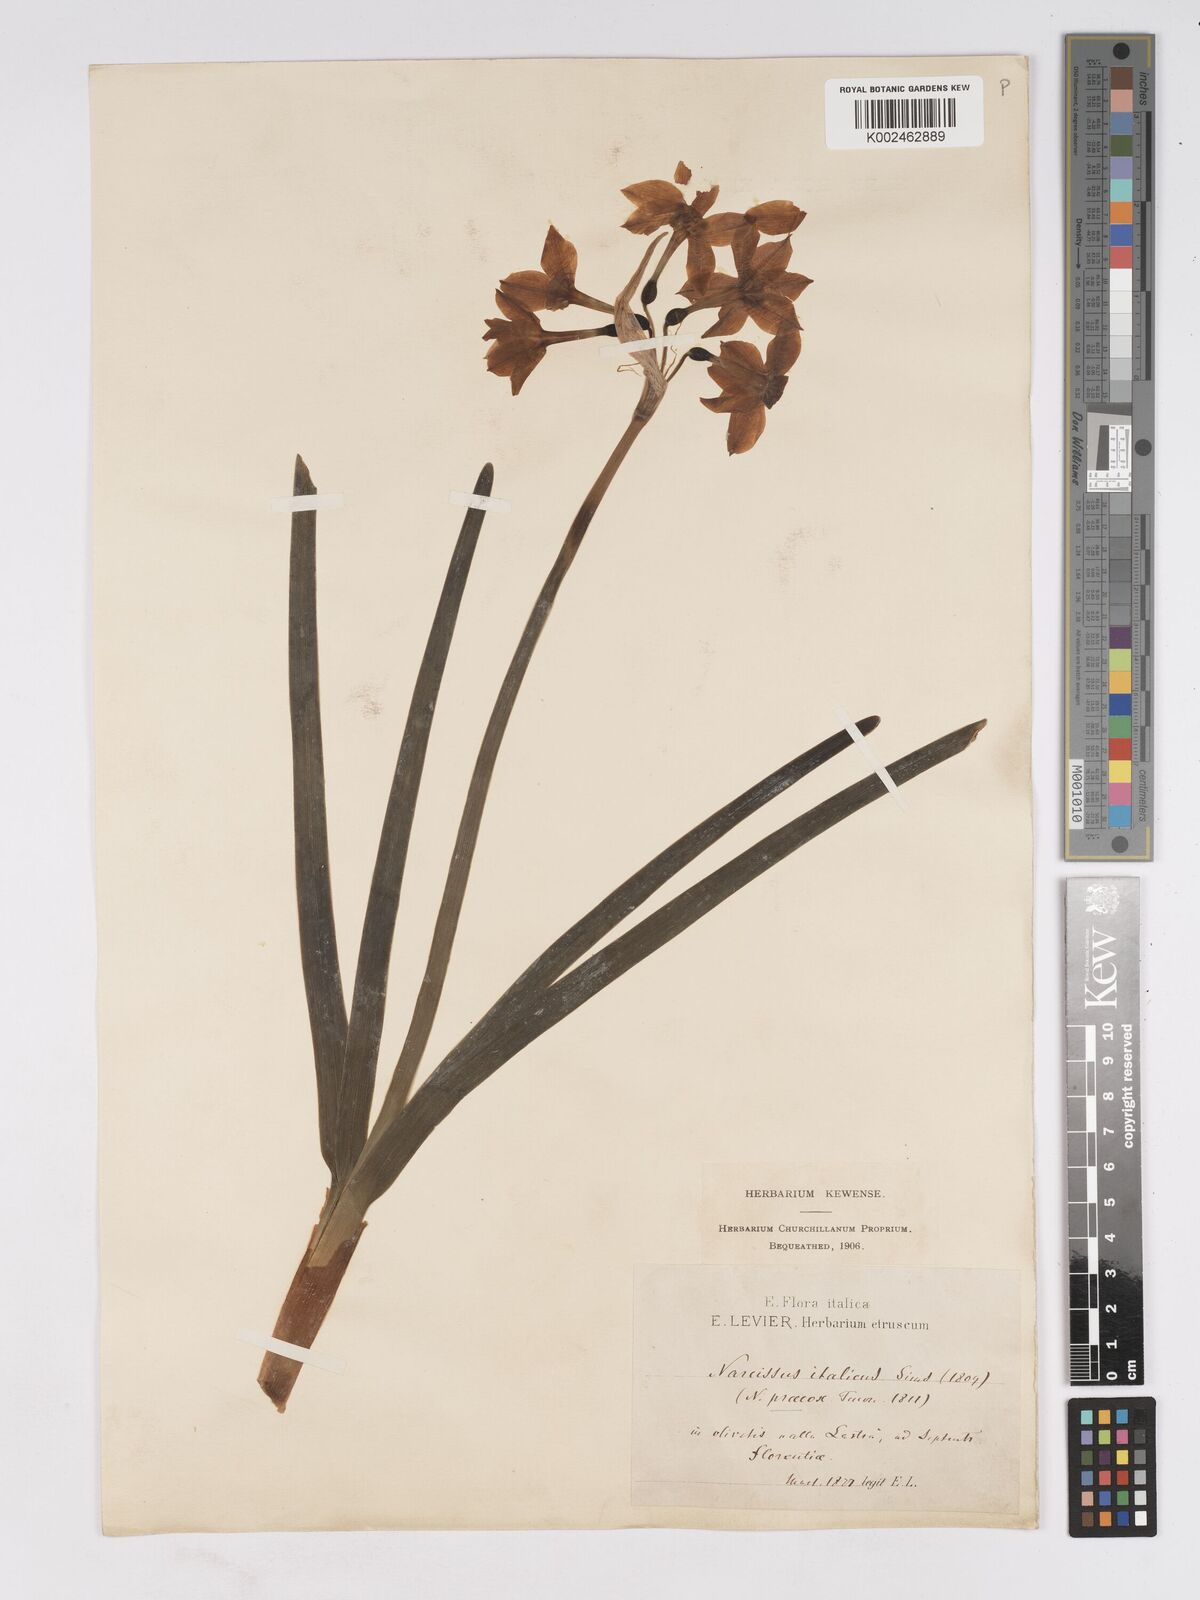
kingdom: Plantae
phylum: Tracheophyta
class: Liliopsida
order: Asparagales
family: Amaryllidaceae
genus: Narcissus
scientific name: Narcissus
